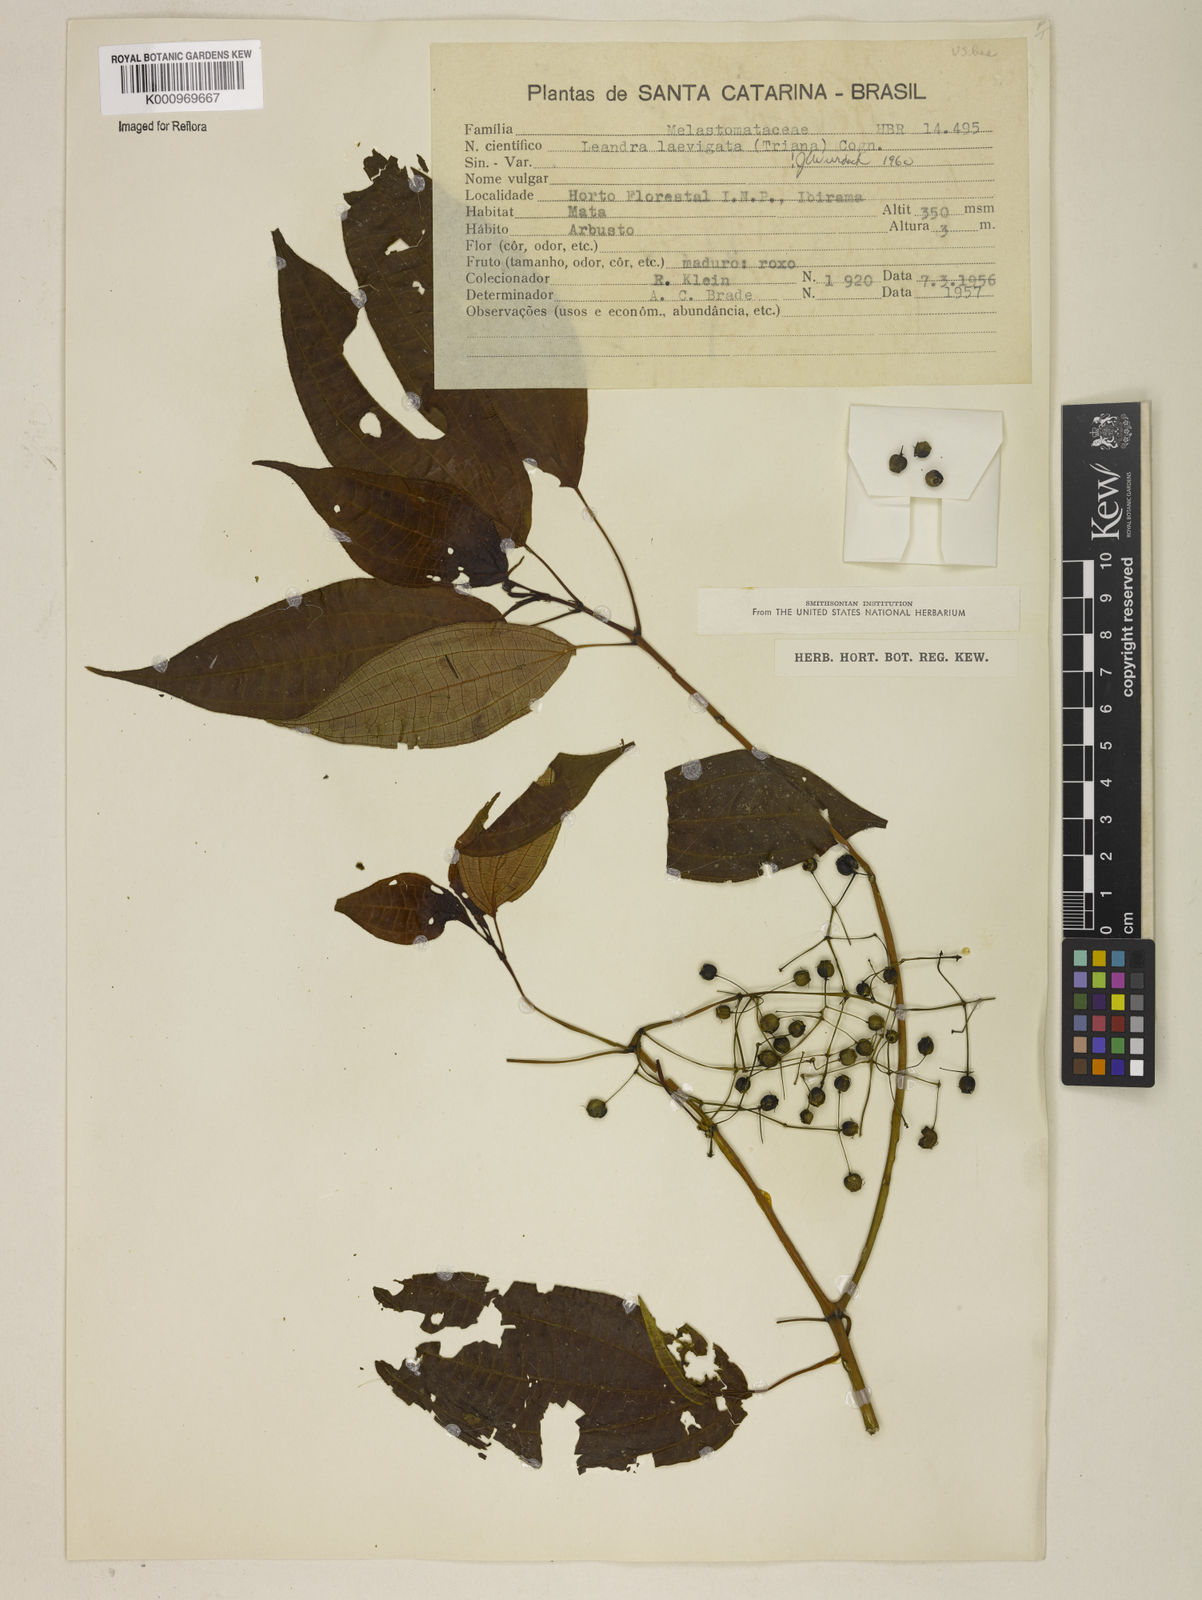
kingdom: Plantae
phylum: Tracheophyta
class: Magnoliopsida
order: Myrtales
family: Melastomataceae
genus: Miconia
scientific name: Miconia ciliolata
